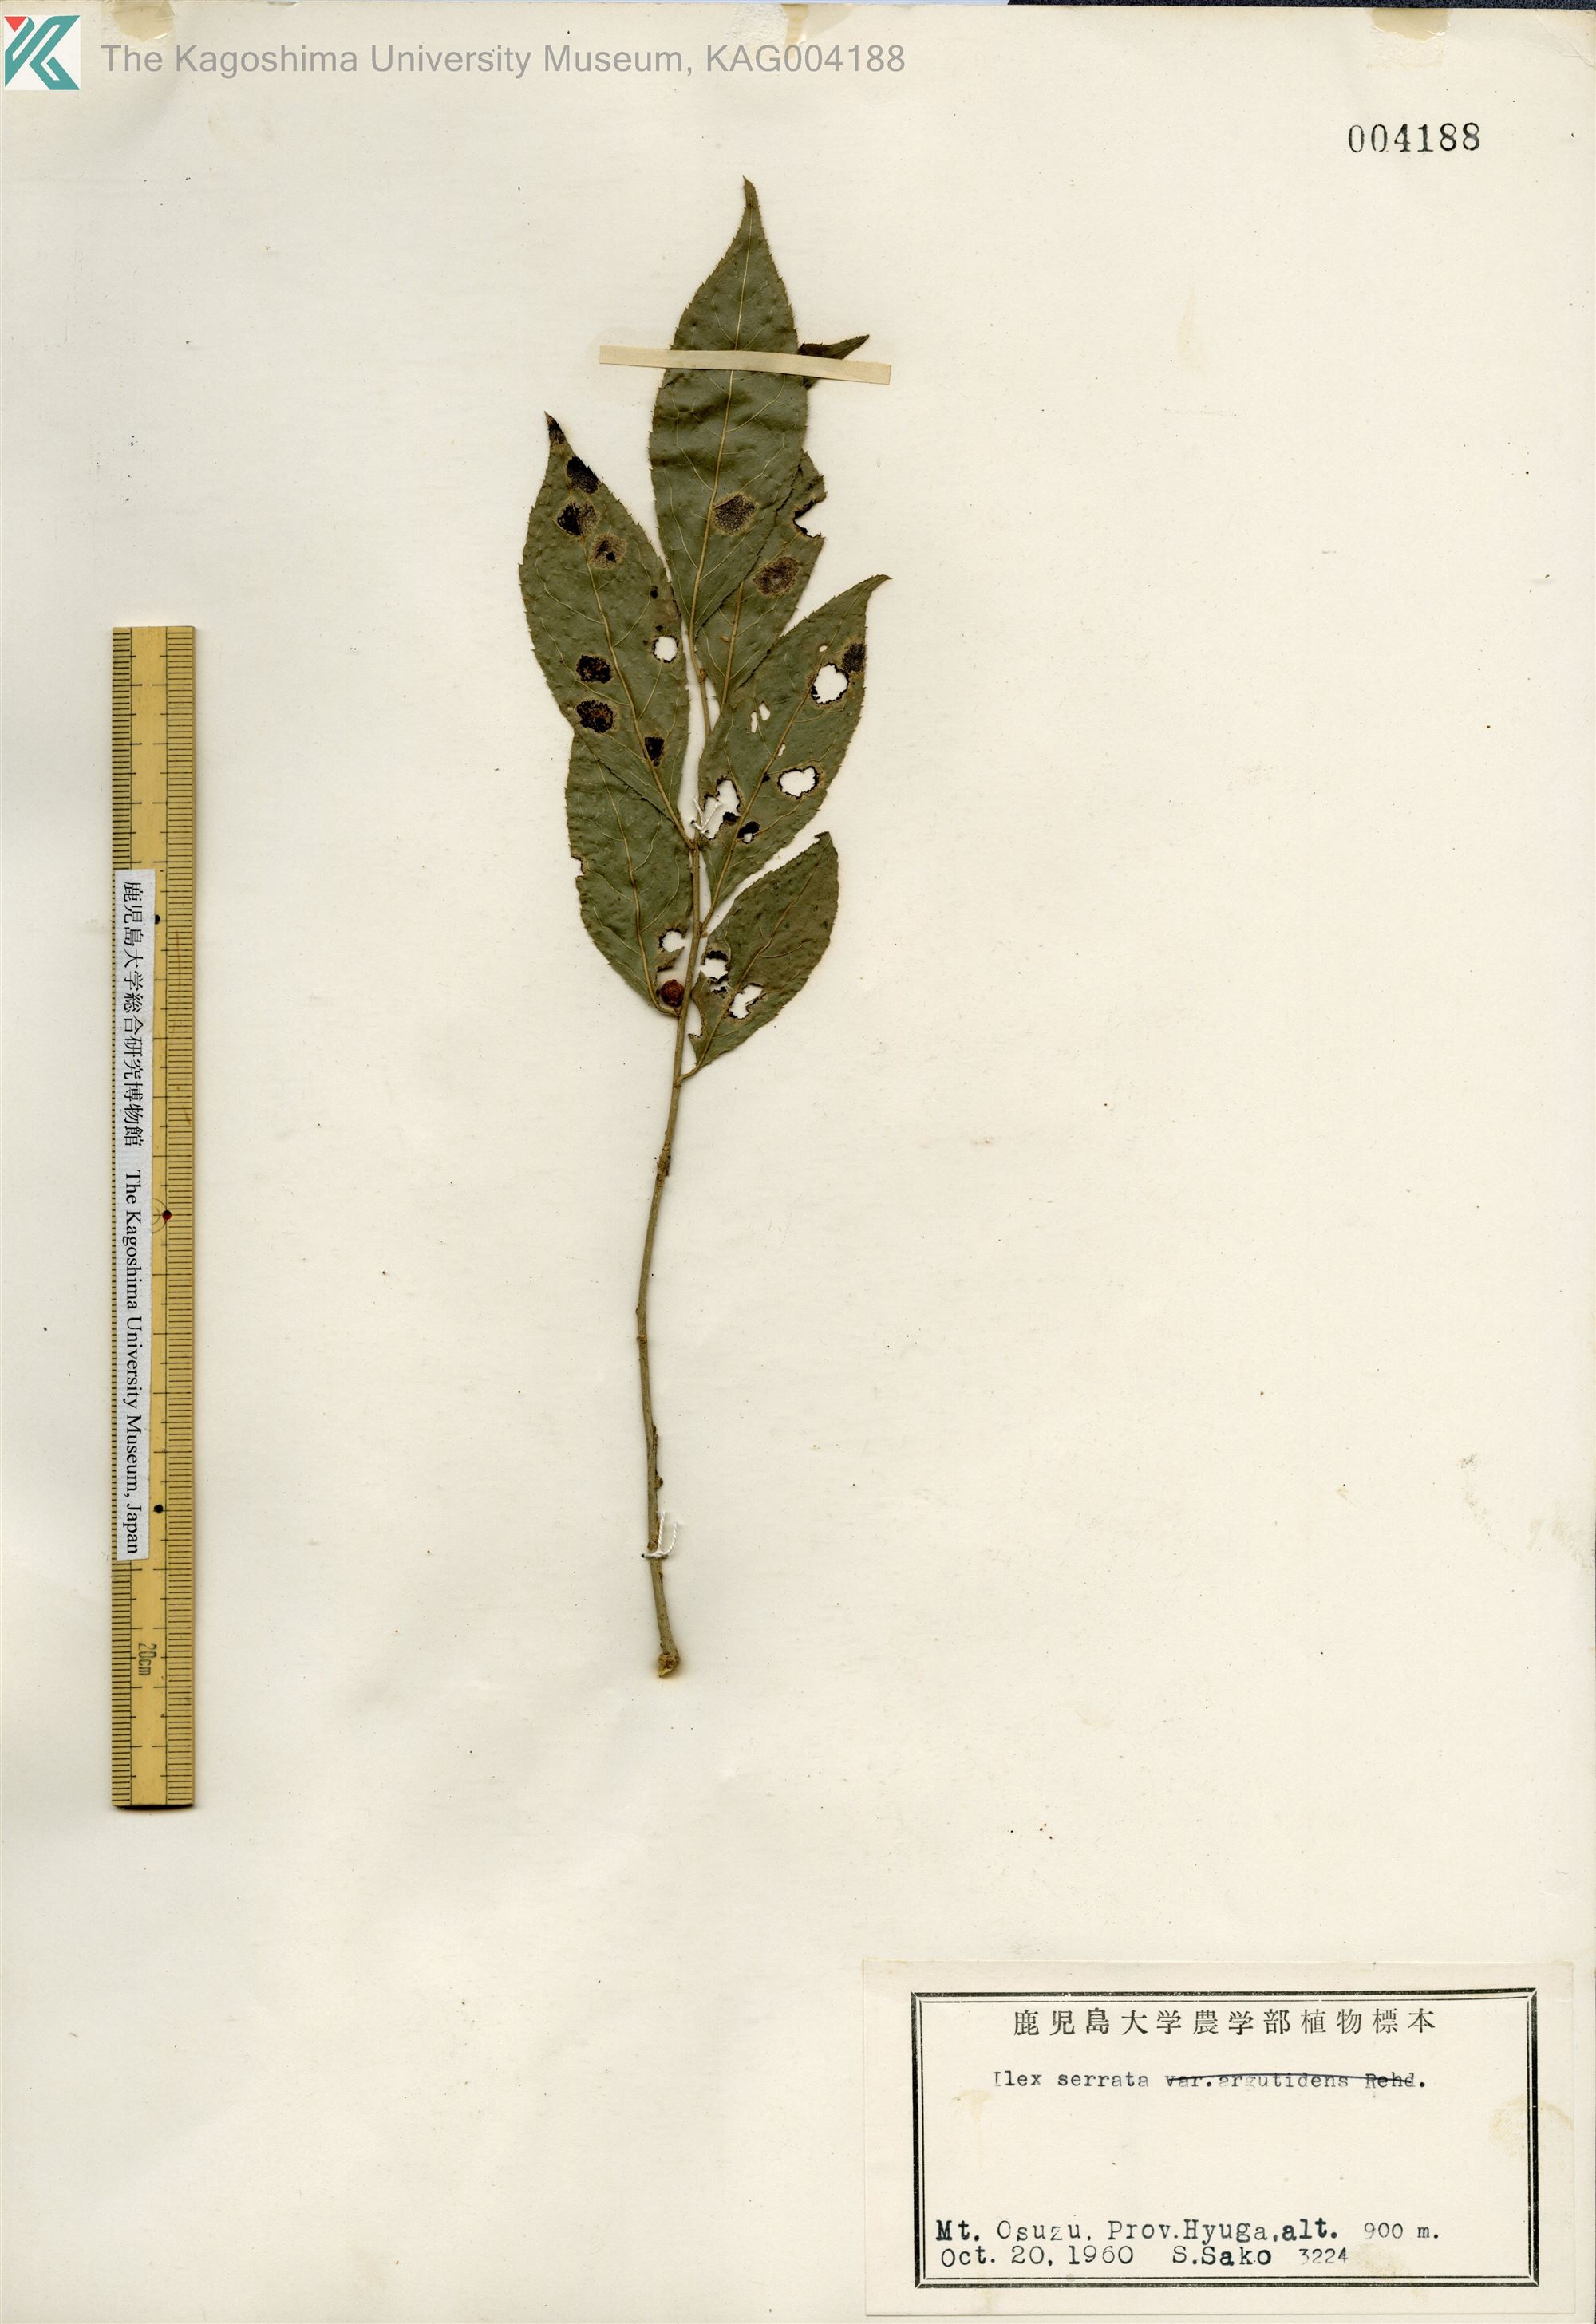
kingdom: Plantae
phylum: Tracheophyta
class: Magnoliopsida
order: Aquifoliales
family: Aquifoliaceae
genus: Ilex
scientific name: Ilex serrata
